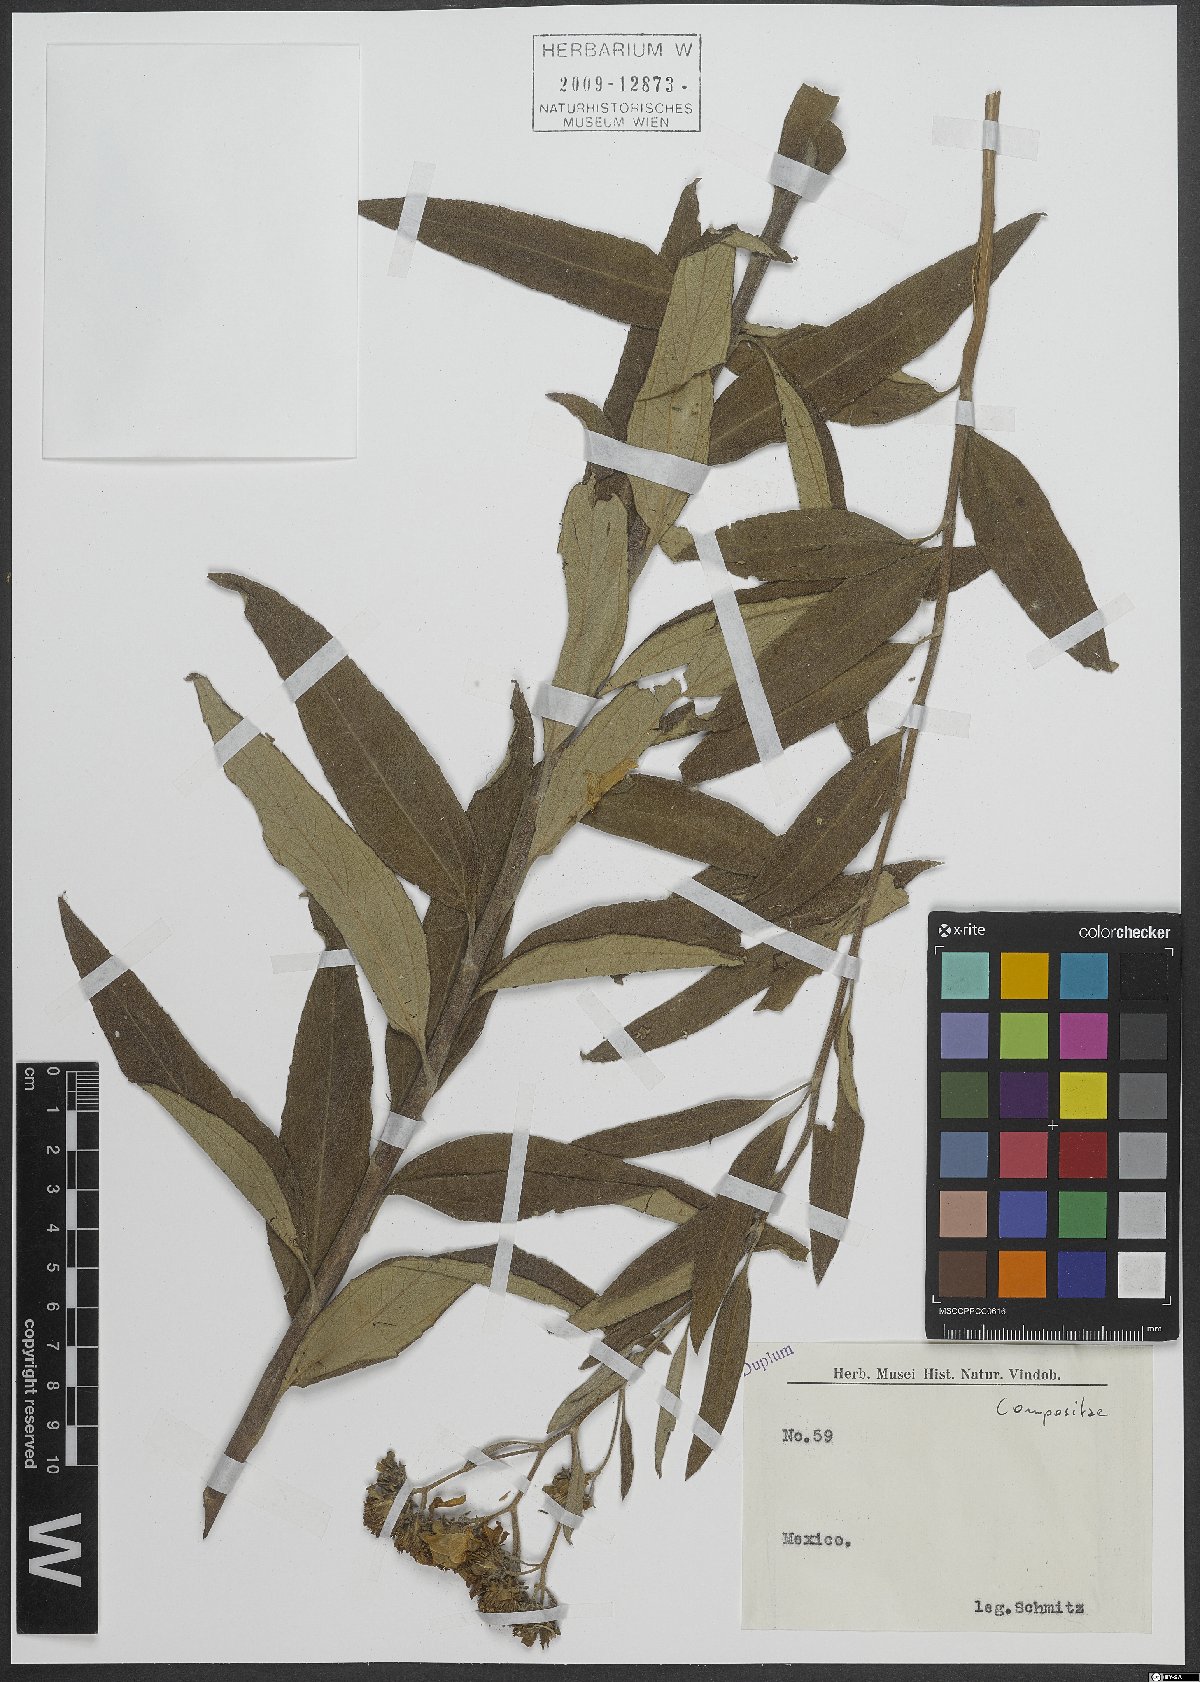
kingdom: Plantae
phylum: Tracheophyta
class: Magnoliopsida
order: Asterales
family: Asteraceae
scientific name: Asteraceae
